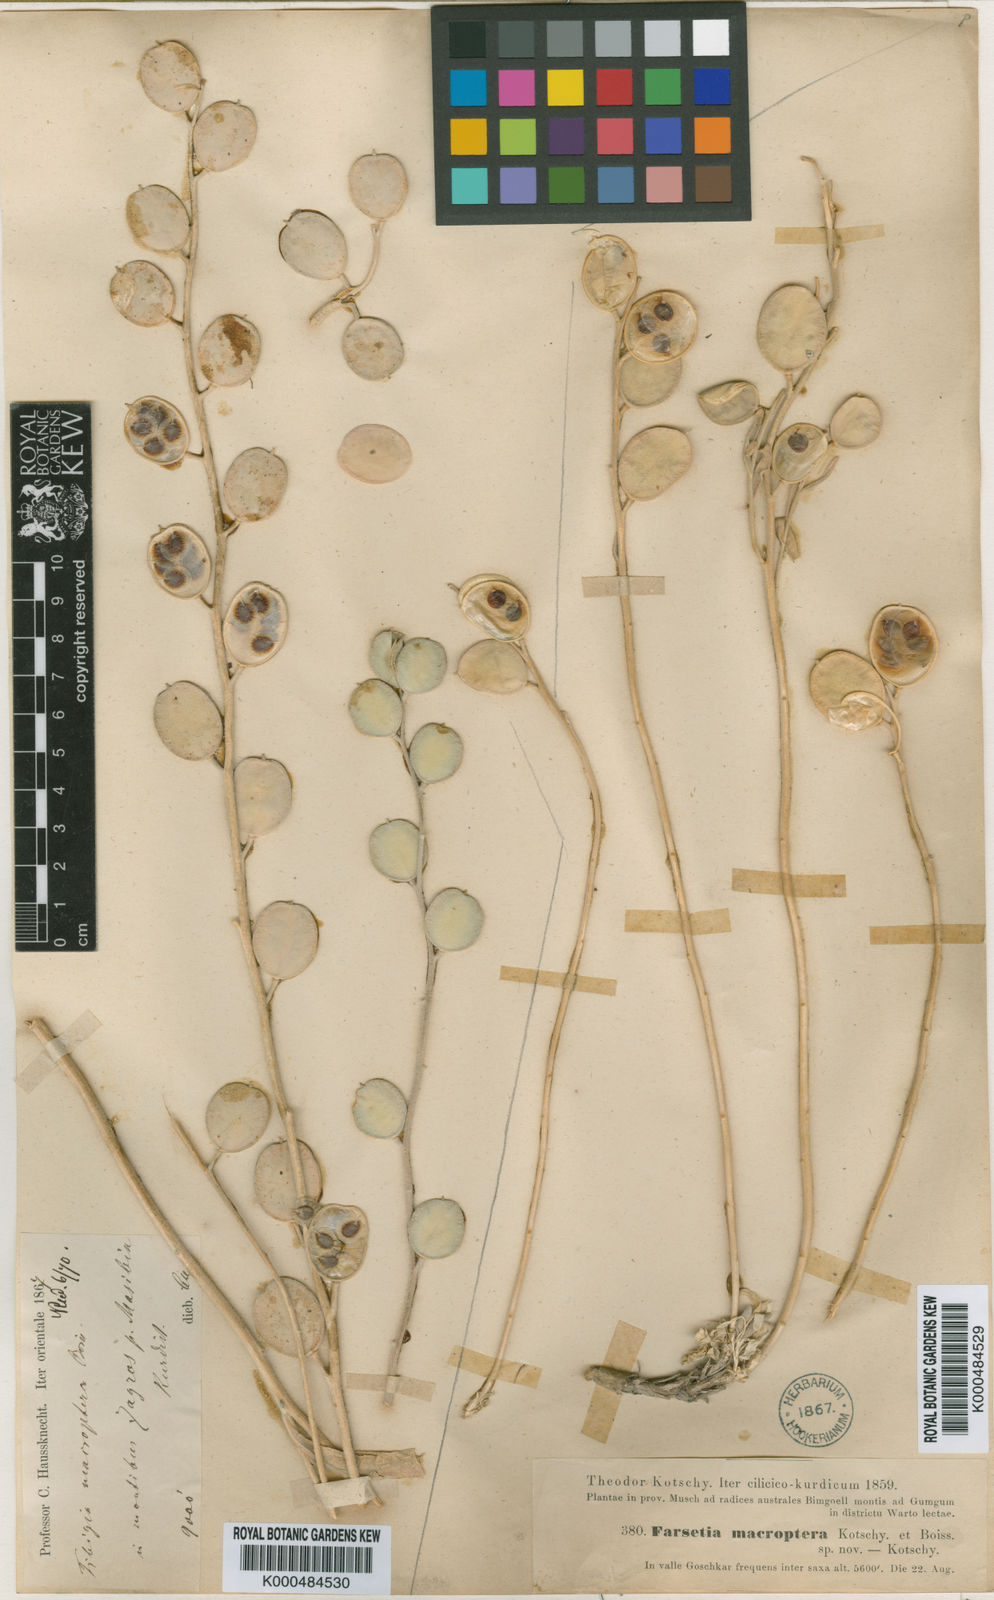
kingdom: Plantae
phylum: Tracheophyta
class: Magnoliopsida
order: Brassicales
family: Brassicaceae
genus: Fibigia
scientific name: Fibigia macrocarpa
